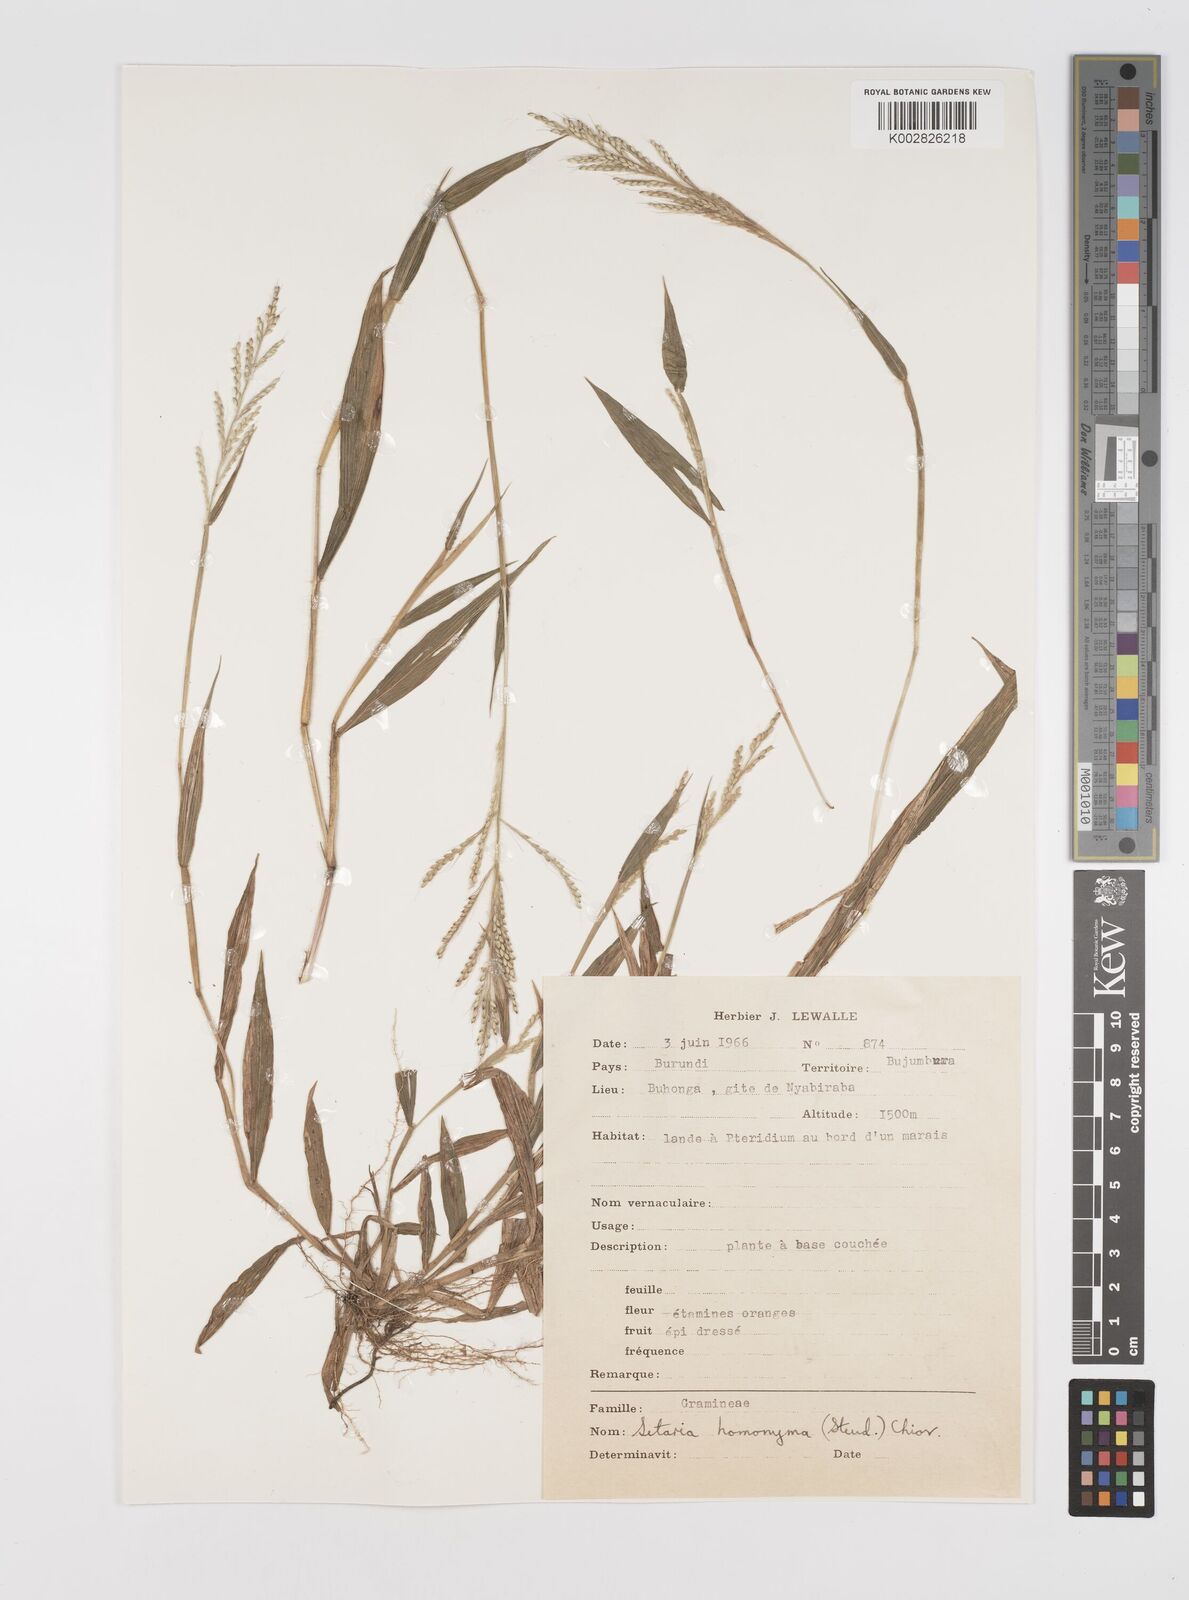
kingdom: Plantae
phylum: Tracheophyta
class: Liliopsida
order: Poales
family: Poaceae
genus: Setaria
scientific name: Setaria homonyma
